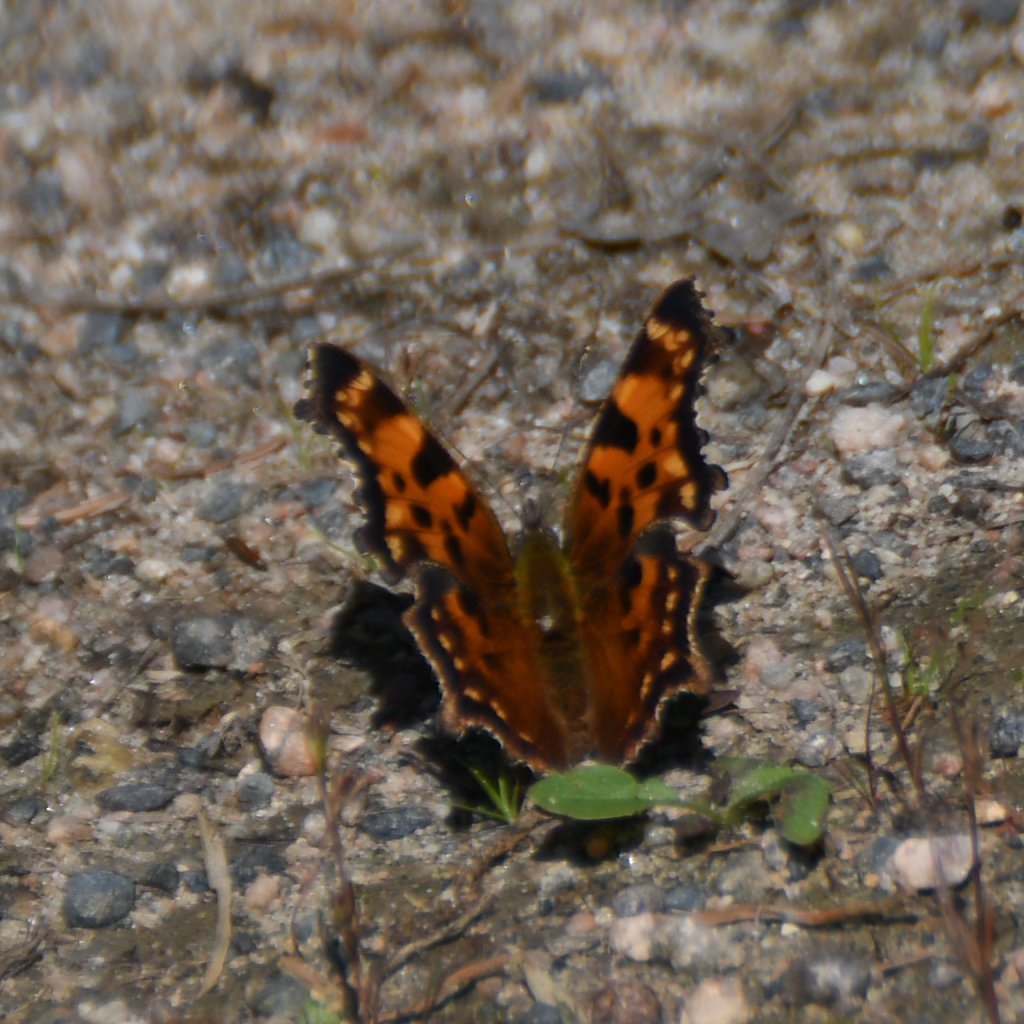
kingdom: Animalia
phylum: Arthropoda
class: Insecta
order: Lepidoptera
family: Nymphalidae
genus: Polygonia
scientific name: Polygonia faunus
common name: Green Comma
